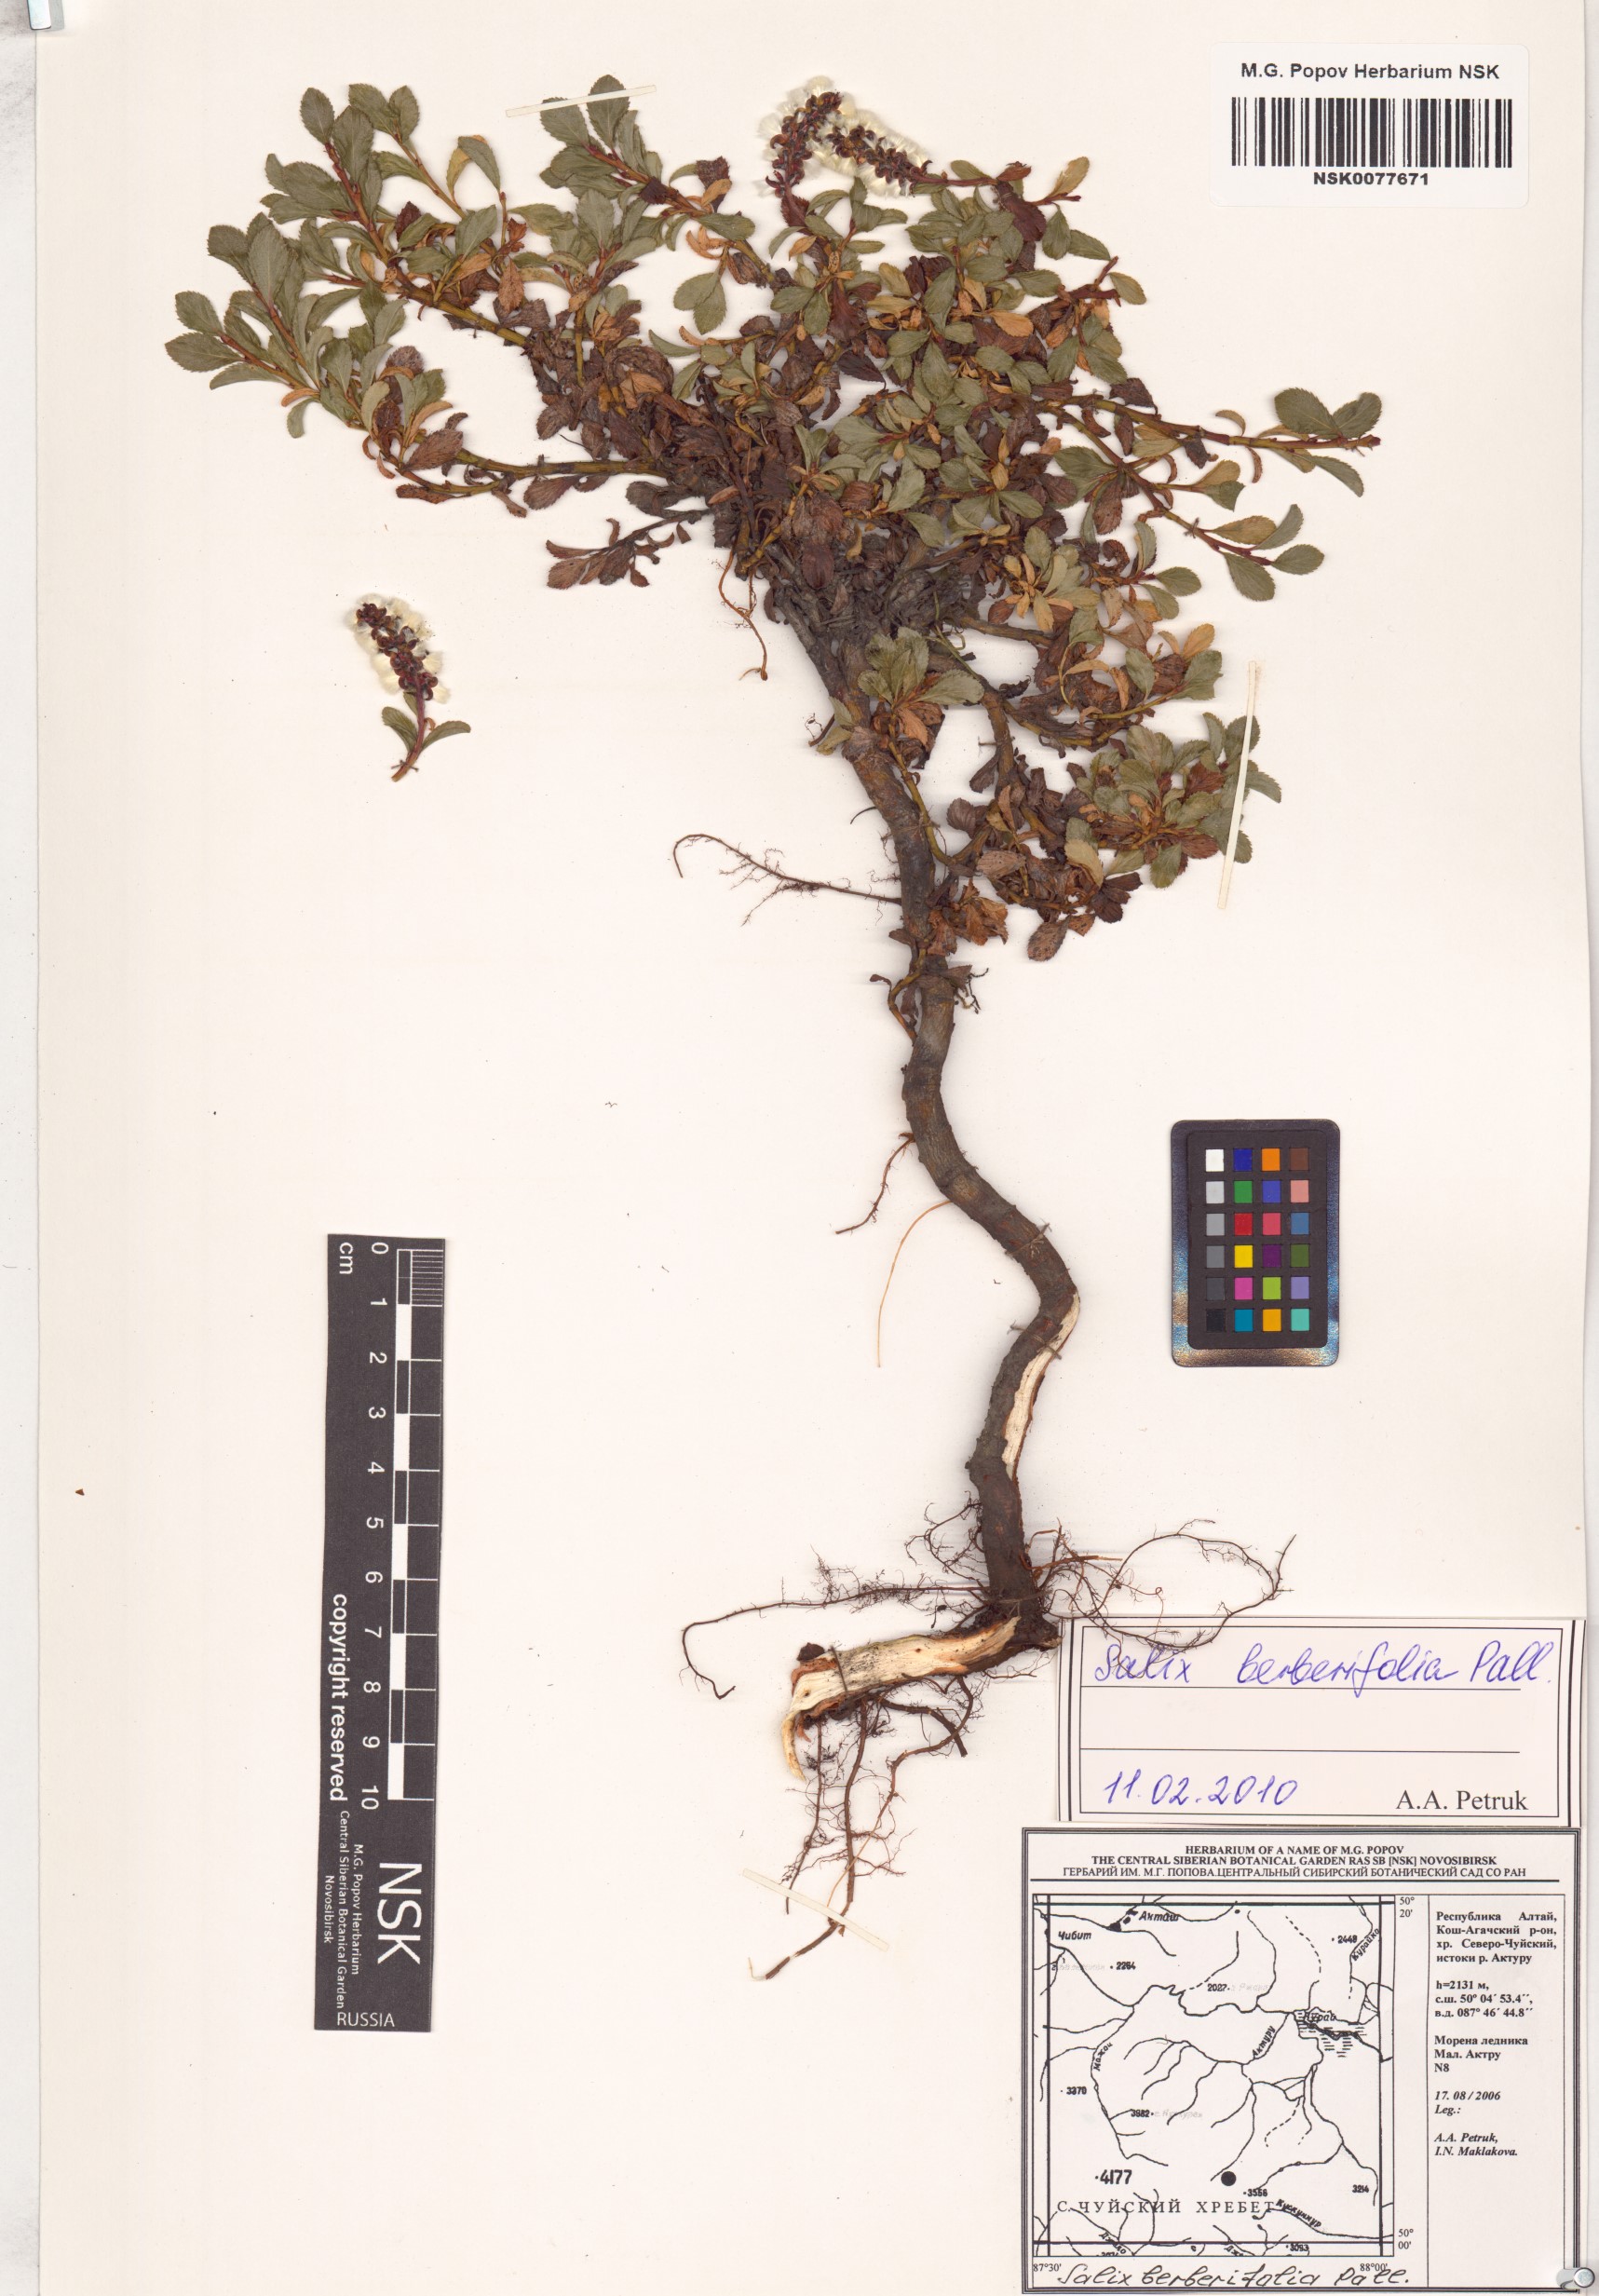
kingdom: Plantae
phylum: Tracheophyta
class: Magnoliopsida
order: Malpighiales
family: Salicaceae
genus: Salix
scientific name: Salix berberifolia
